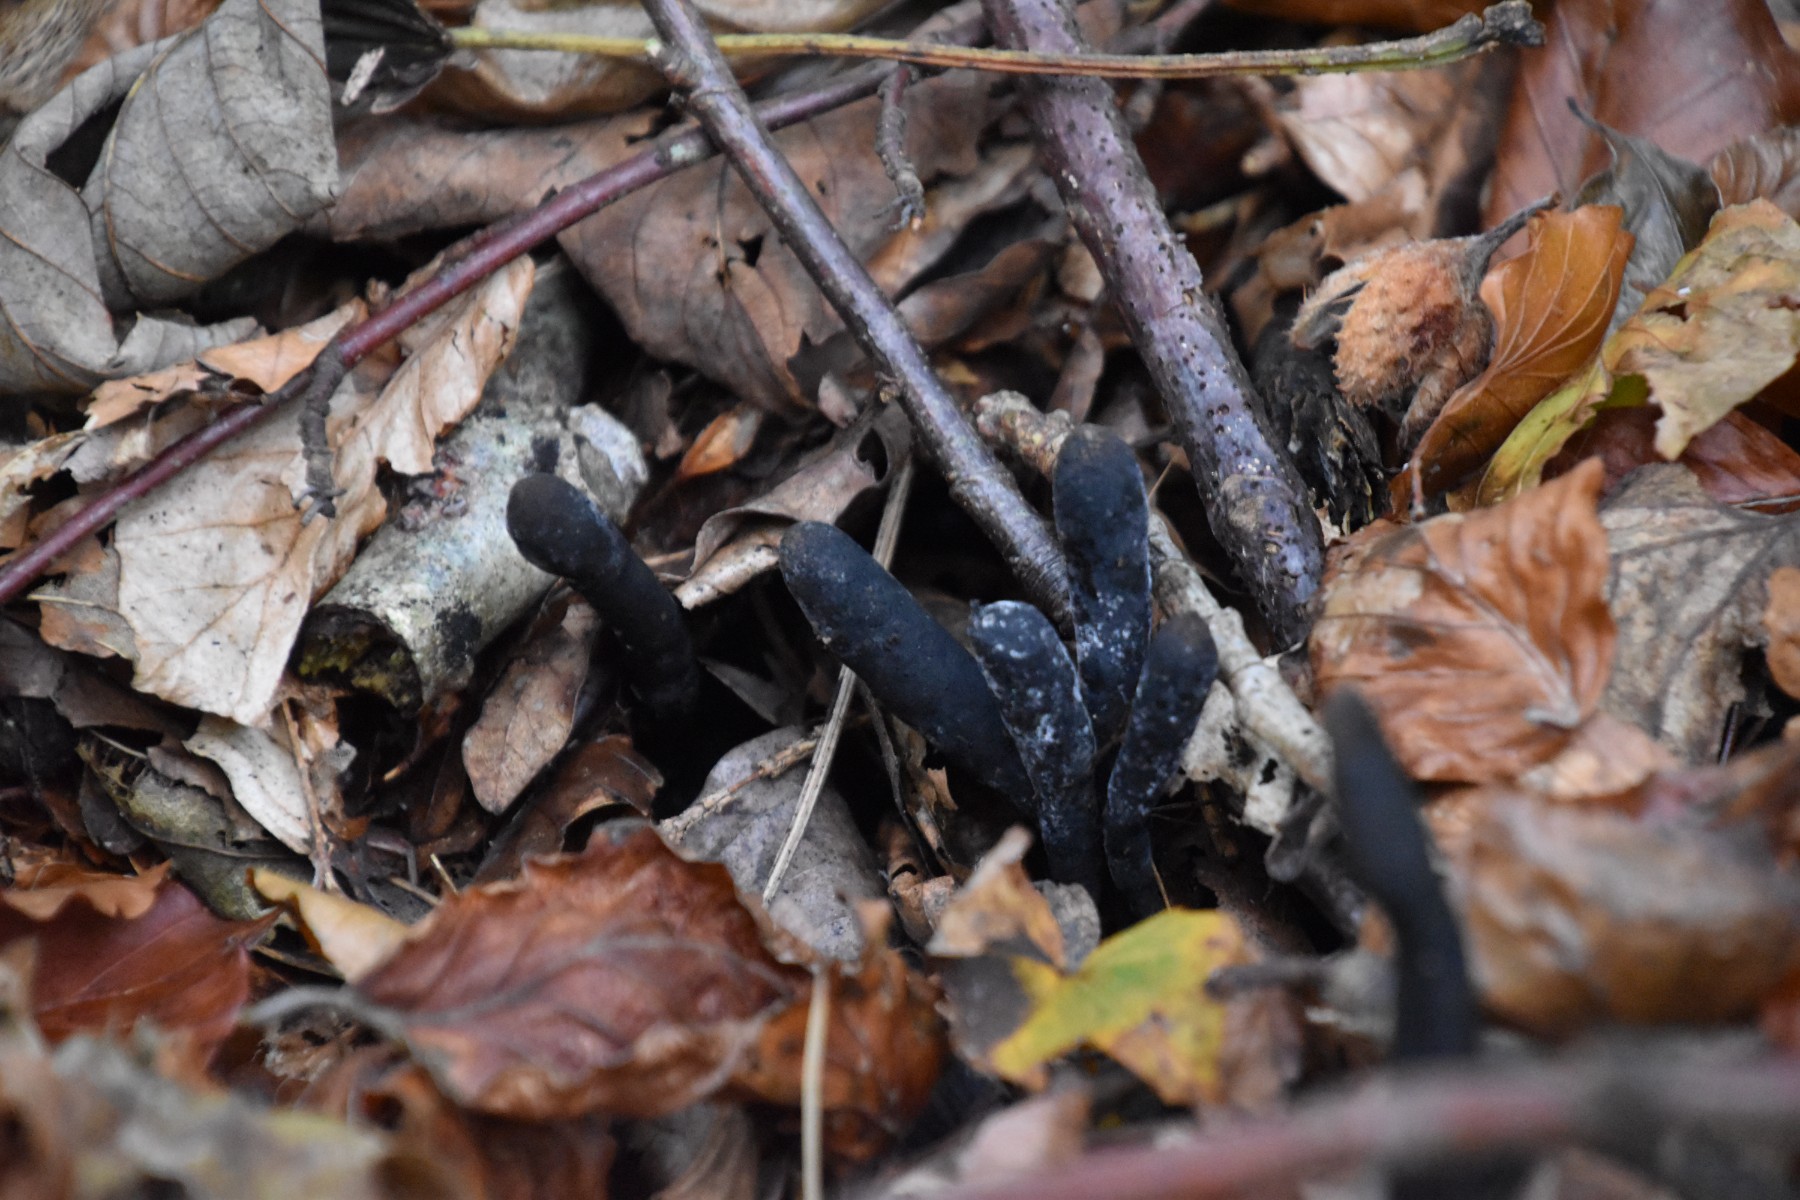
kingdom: Fungi
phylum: Ascomycota
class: Sordariomycetes
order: Xylariales
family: Xylariaceae
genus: Xylaria
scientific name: Xylaria longipes
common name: slank stødsvamp
